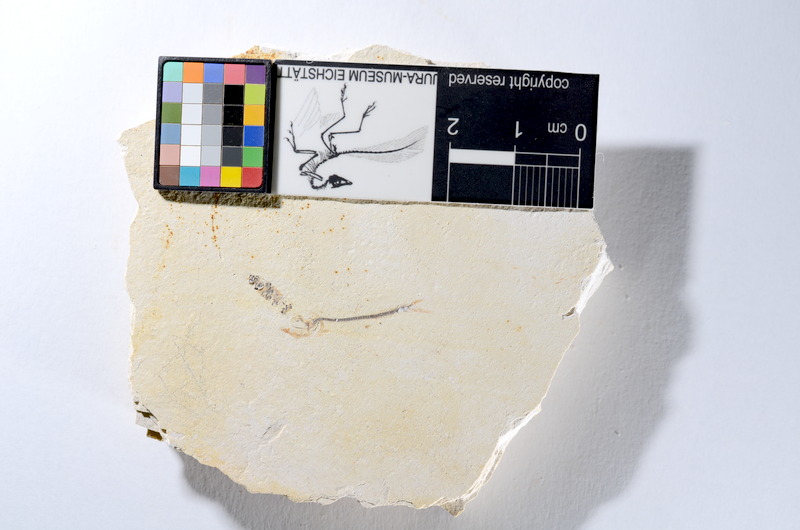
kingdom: Animalia
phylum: Chordata
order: Salmoniformes
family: Orthogonikleithridae
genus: Orthogonikleithrus
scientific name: Orthogonikleithrus hoelli
